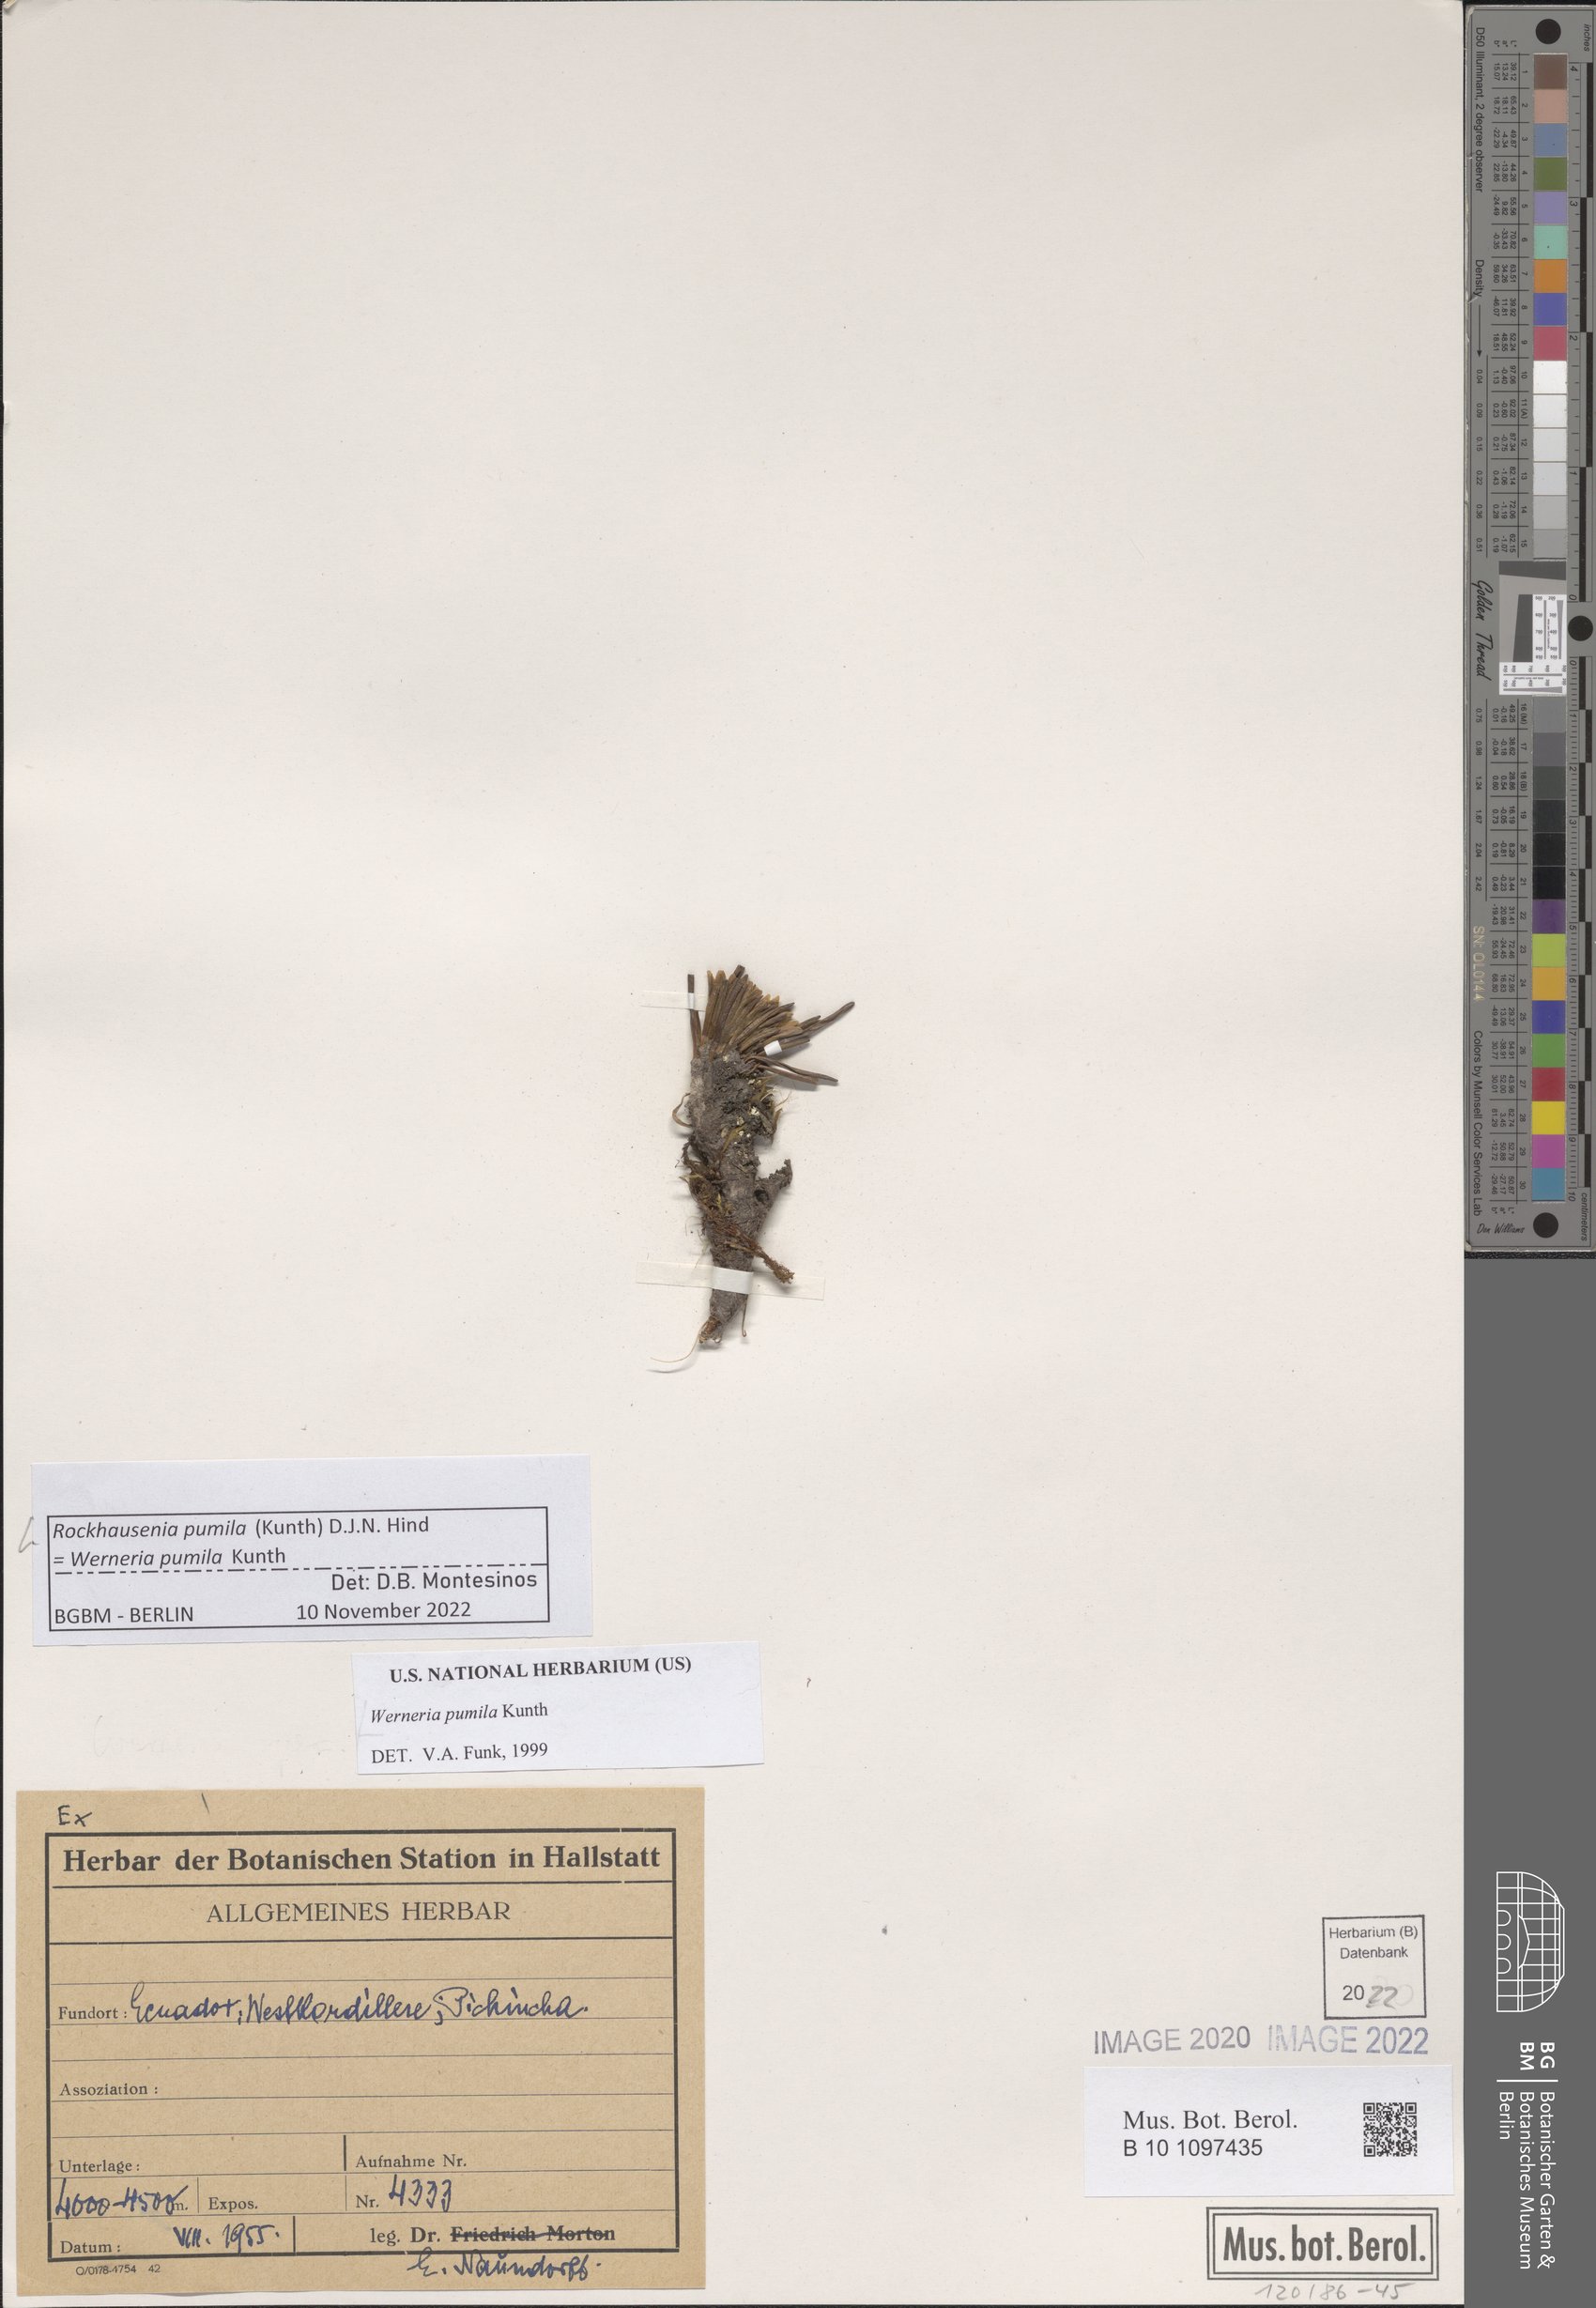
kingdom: Plantae
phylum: Tracheophyta
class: Magnoliopsida
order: Asterales
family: Asteraceae
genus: Rockhausenia
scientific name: Rockhausenia pumila
